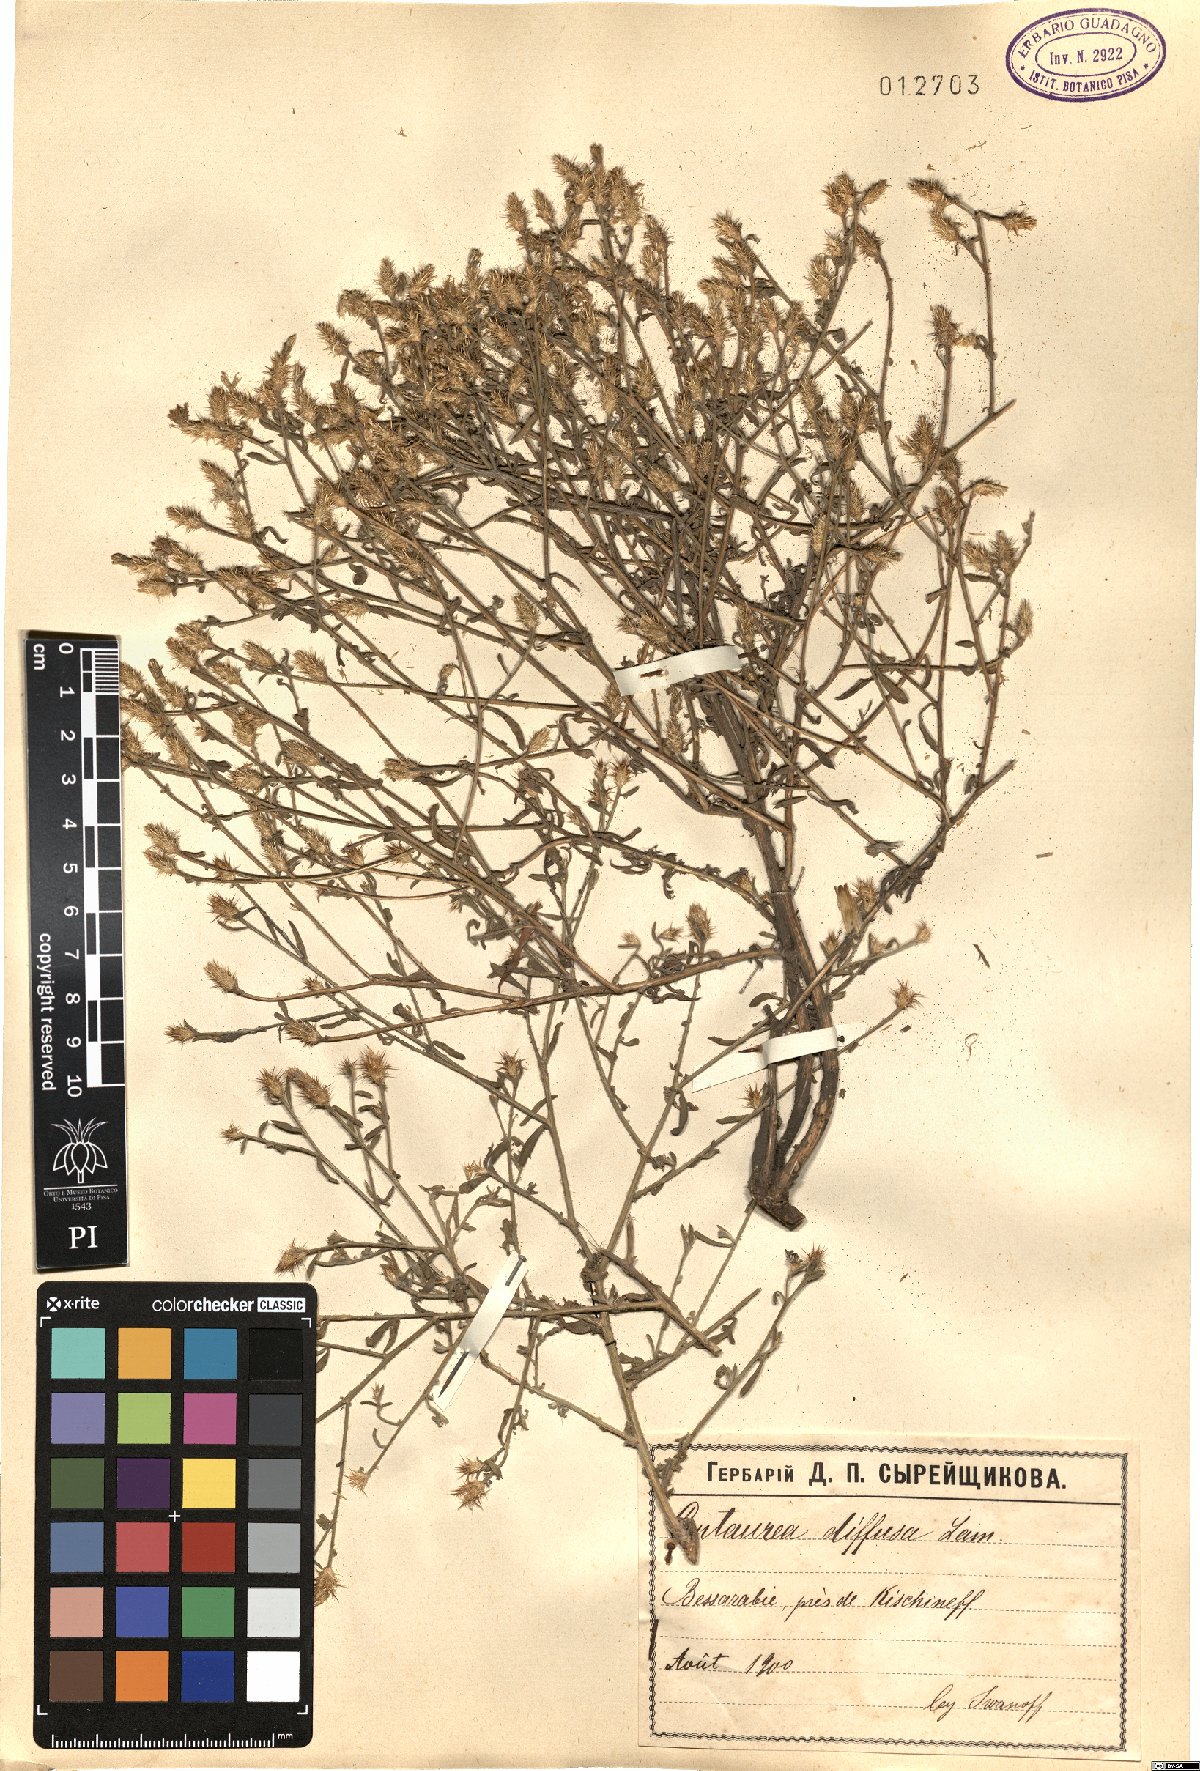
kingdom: Plantae
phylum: Tracheophyta
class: Magnoliopsida
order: Asterales
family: Asteraceae
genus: Centaurea
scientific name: Centaurea diffusa
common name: Diffuse knapweed
